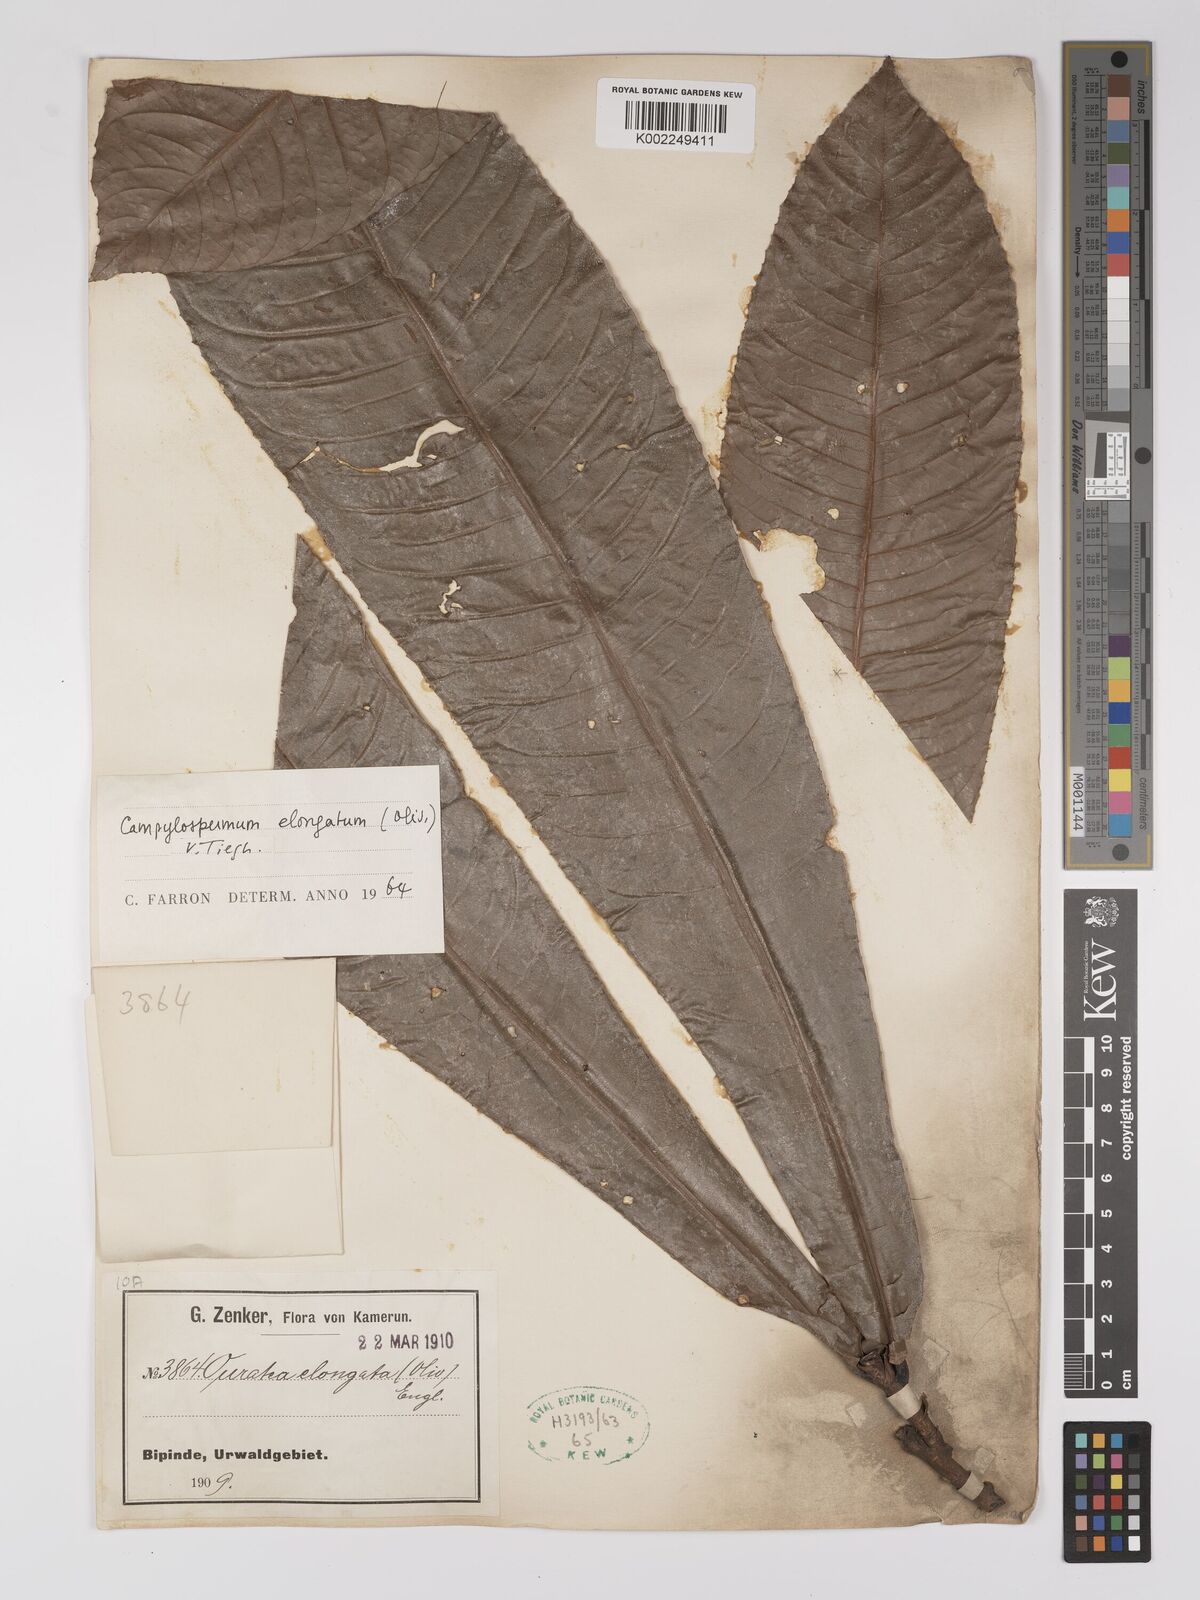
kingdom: Plantae
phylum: Tracheophyta
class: Magnoliopsida
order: Malpighiales
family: Ochnaceae
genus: Gomphia
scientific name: Gomphia elongata
